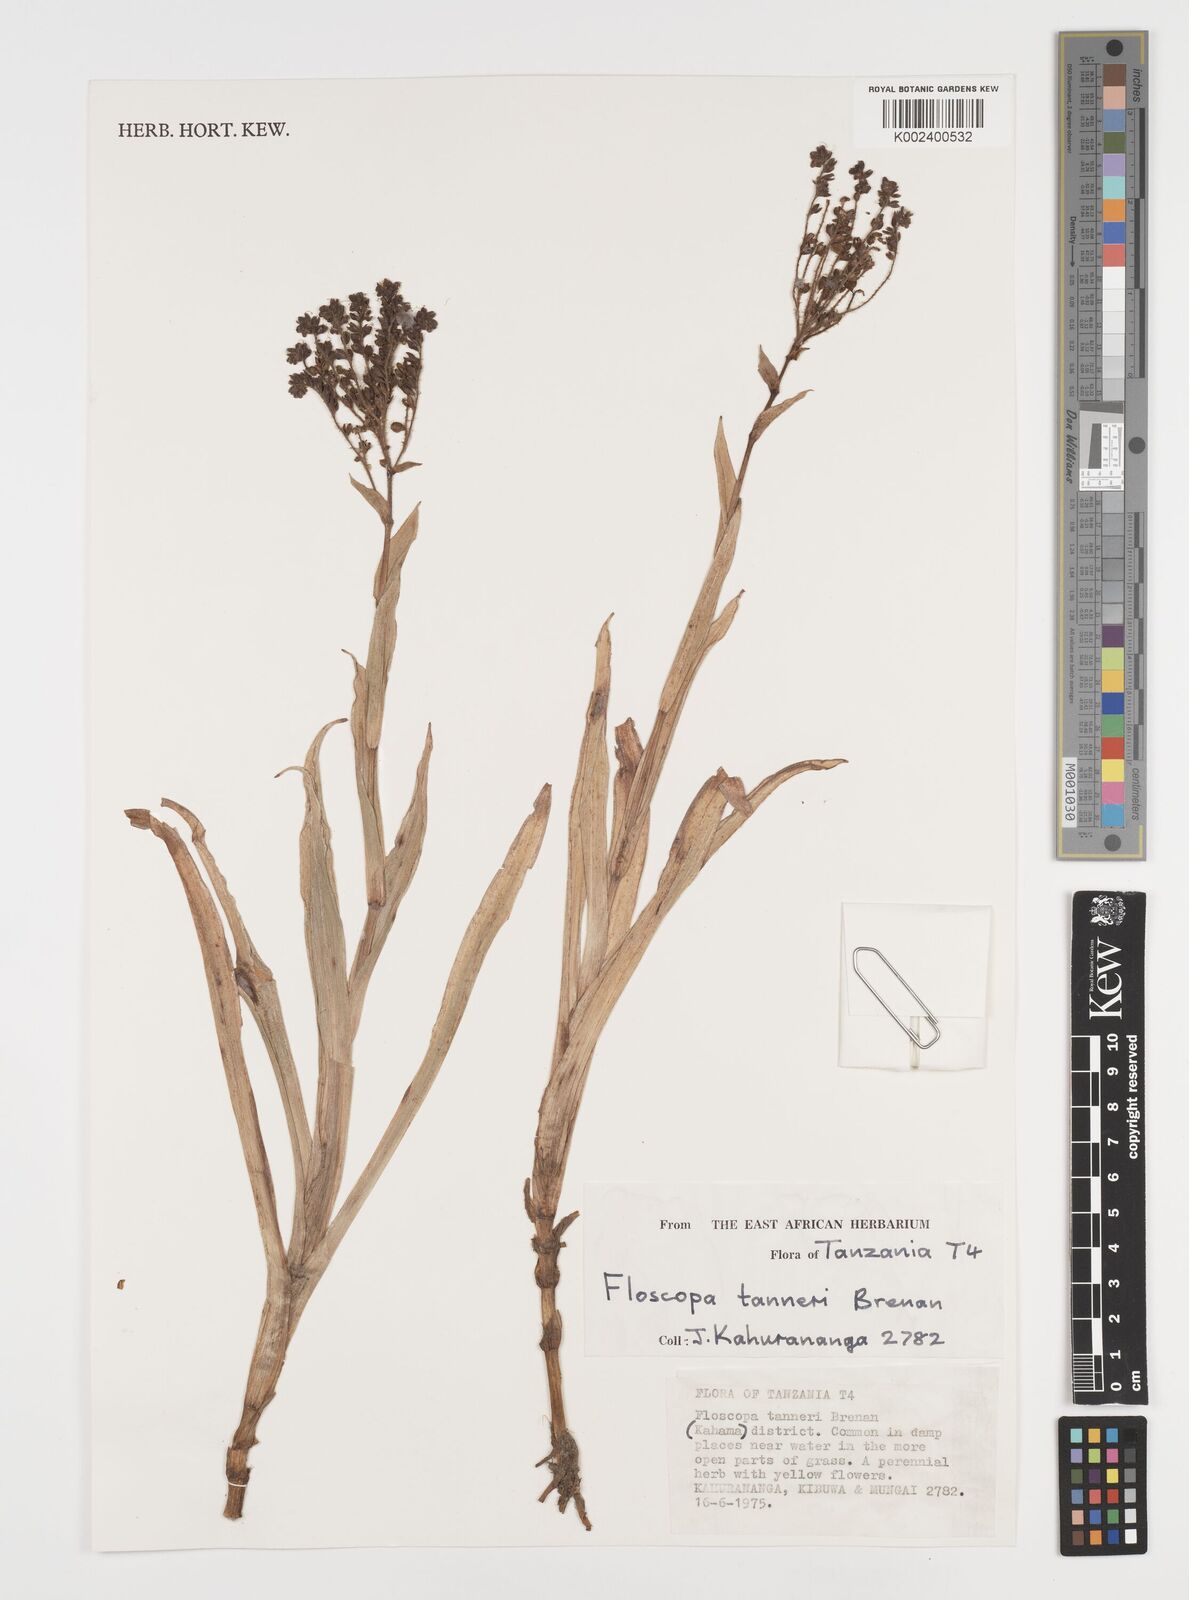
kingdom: Plantae
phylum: Tracheophyta
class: Liliopsida
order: Commelinales
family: Commelinaceae
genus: Floscopa
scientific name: Floscopa tanneri
